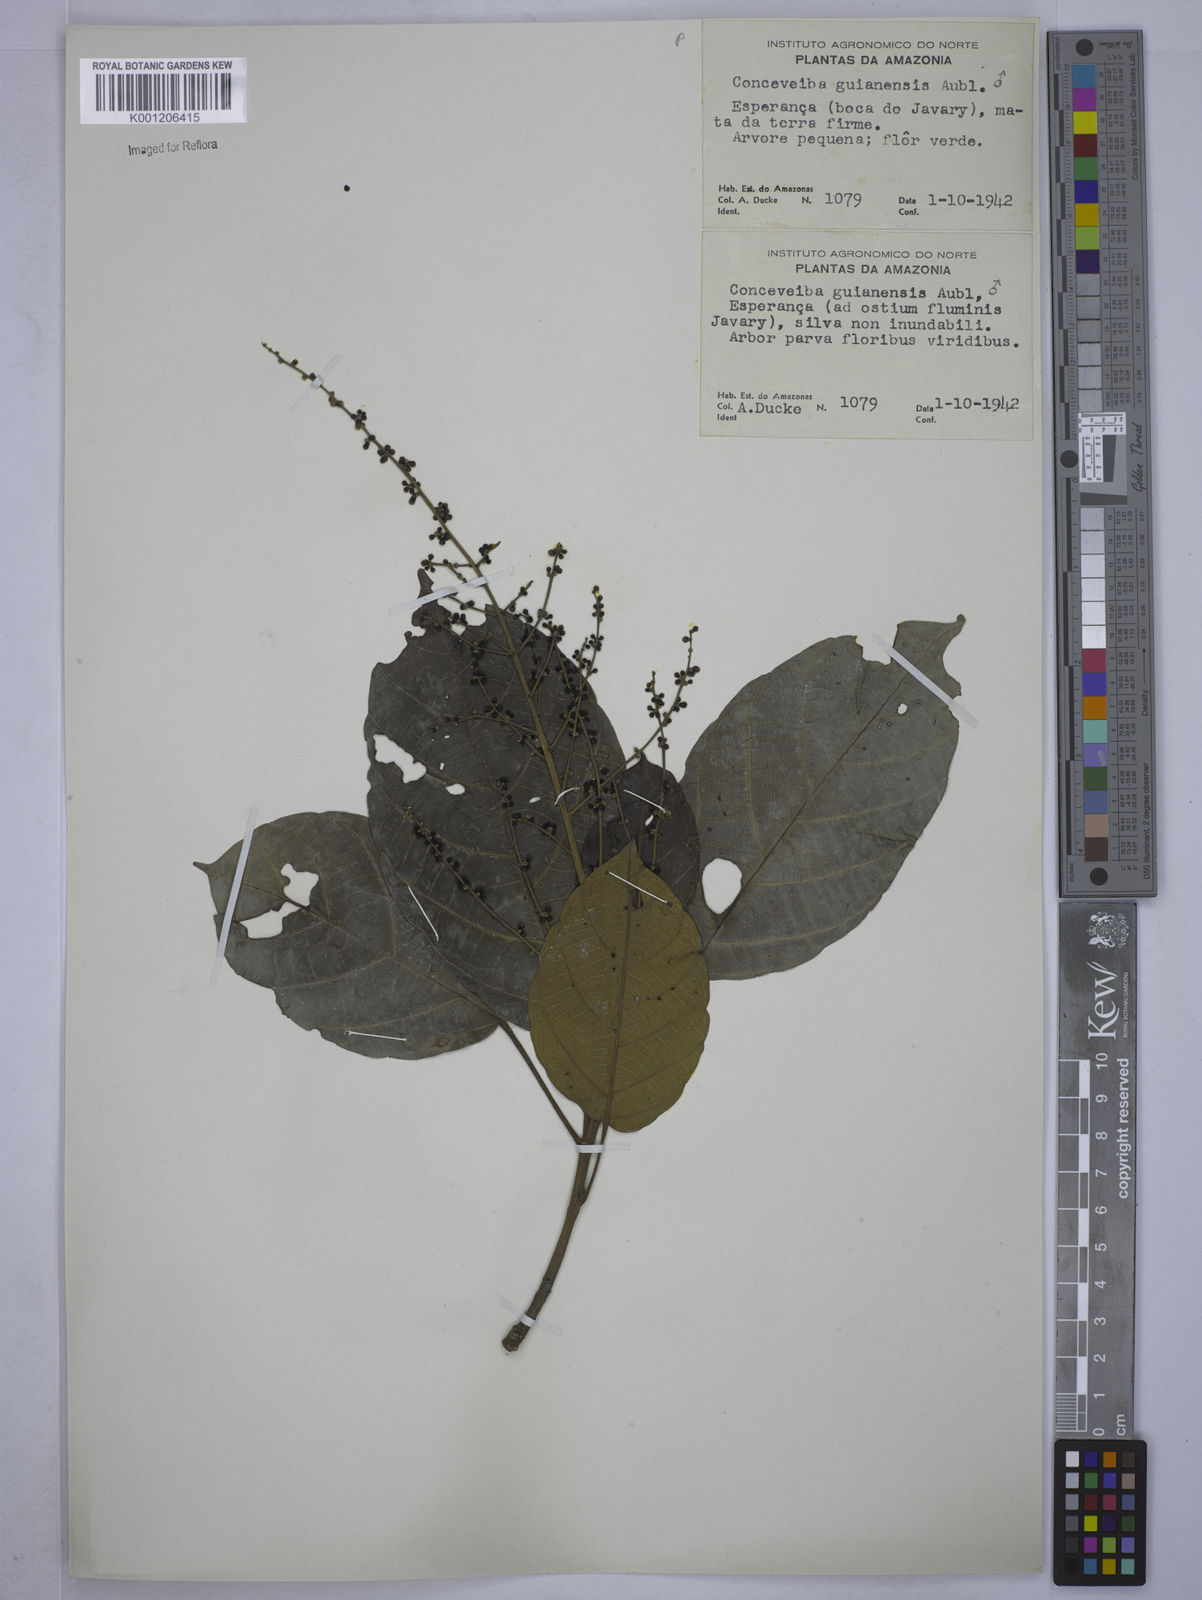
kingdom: Plantae
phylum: Tracheophyta
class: Magnoliopsida
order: Malpighiales
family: Euphorbiaceae
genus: Conceveiba
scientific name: Conceveiba guianensis
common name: Poatoru
